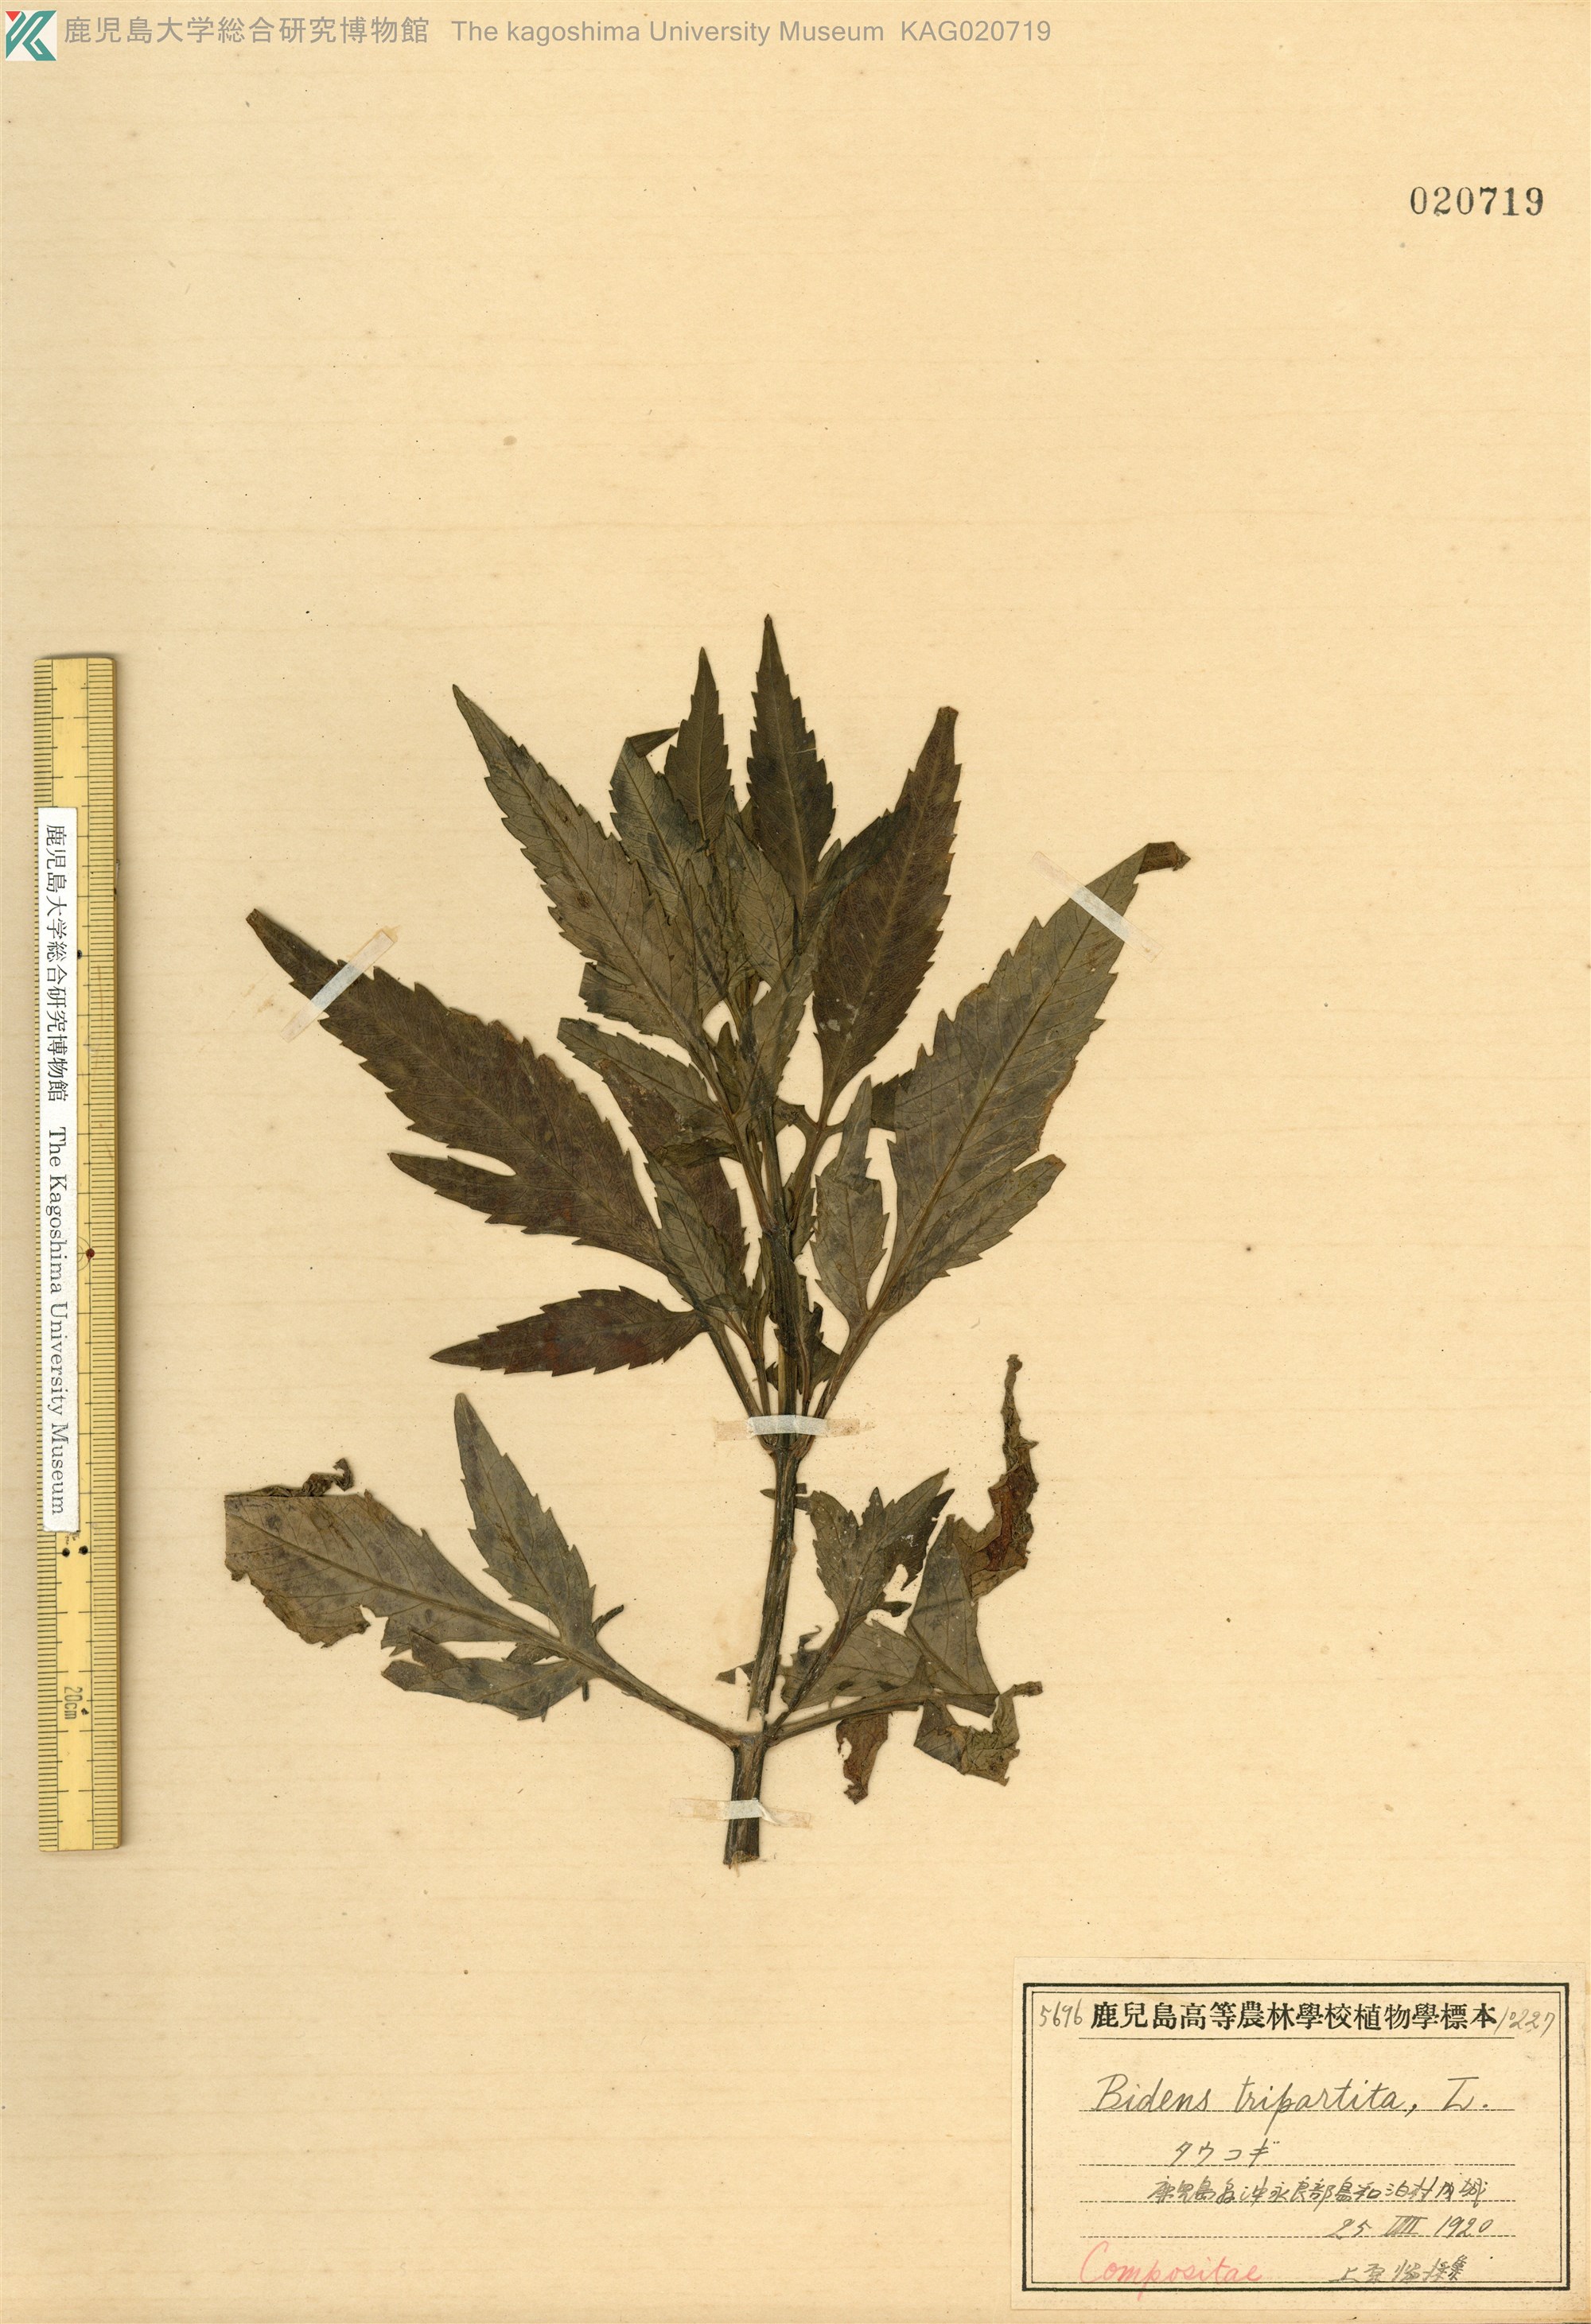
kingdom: Plantae
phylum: Tracheophyta
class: Magnoliopsida
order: Asterales
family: Asteraceae
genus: Bidens
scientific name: Bidens tripartita
